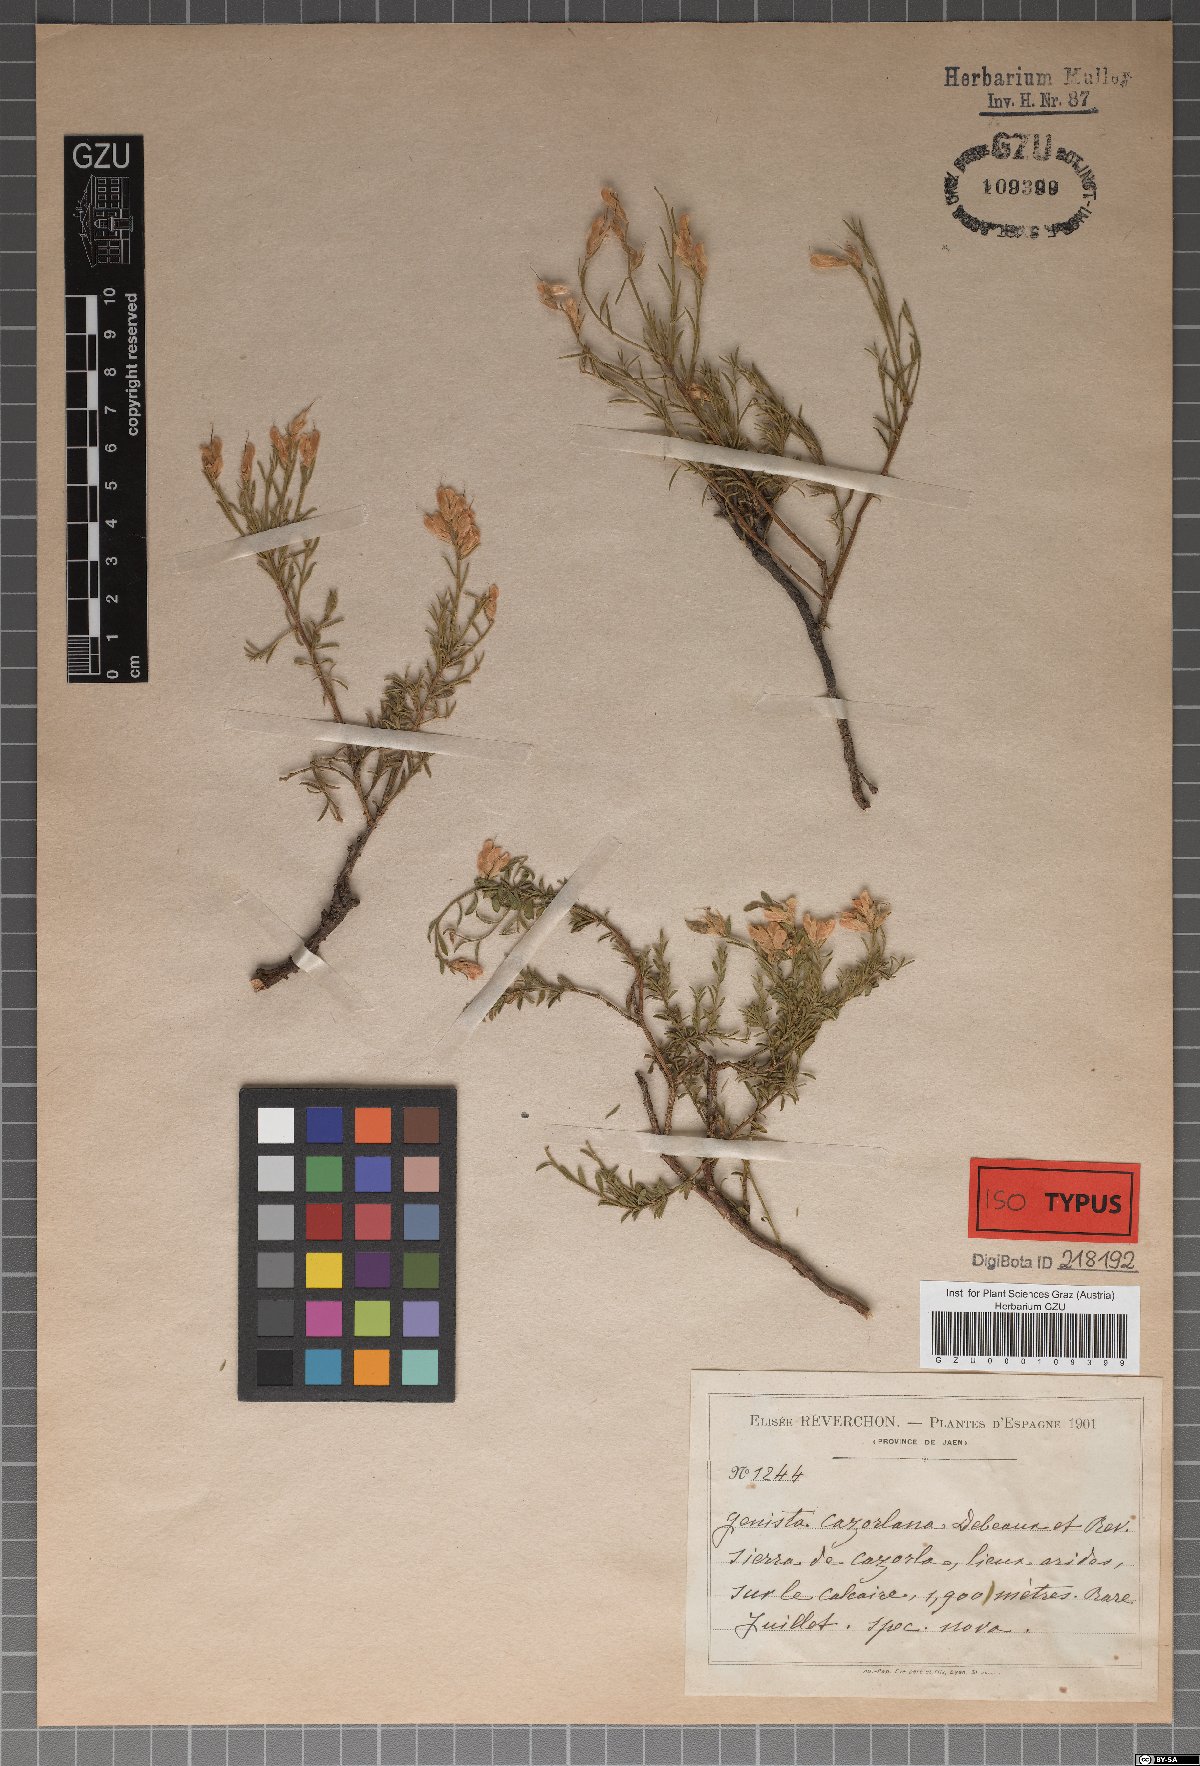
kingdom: Plantae
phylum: Tracheophyta
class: Magnoliopsida
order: Fabales
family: Fabaceae
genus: Genista
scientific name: Genista pseudopilosa
